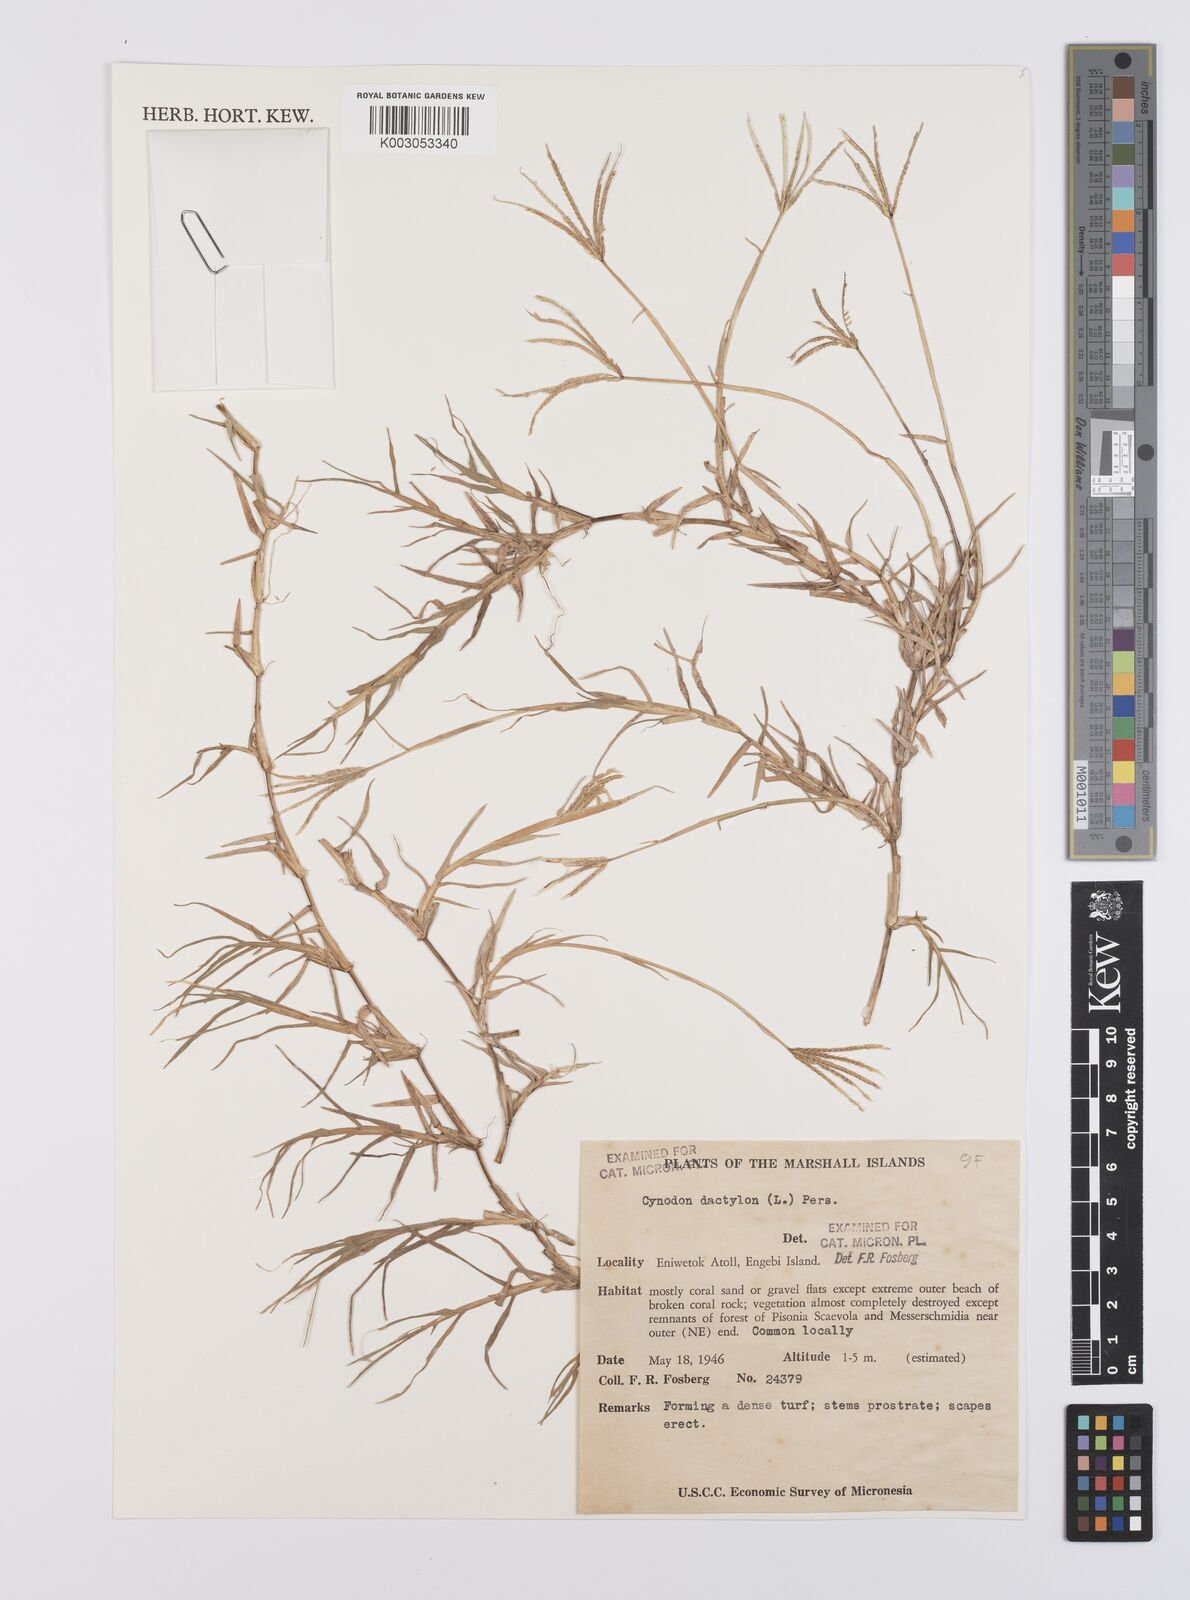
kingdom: Plantae
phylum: Tracheophyta
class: Liliopsida
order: Poales
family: Poaceae
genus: Cynodon
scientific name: Cynodon dactylon
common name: Bermuda grass
